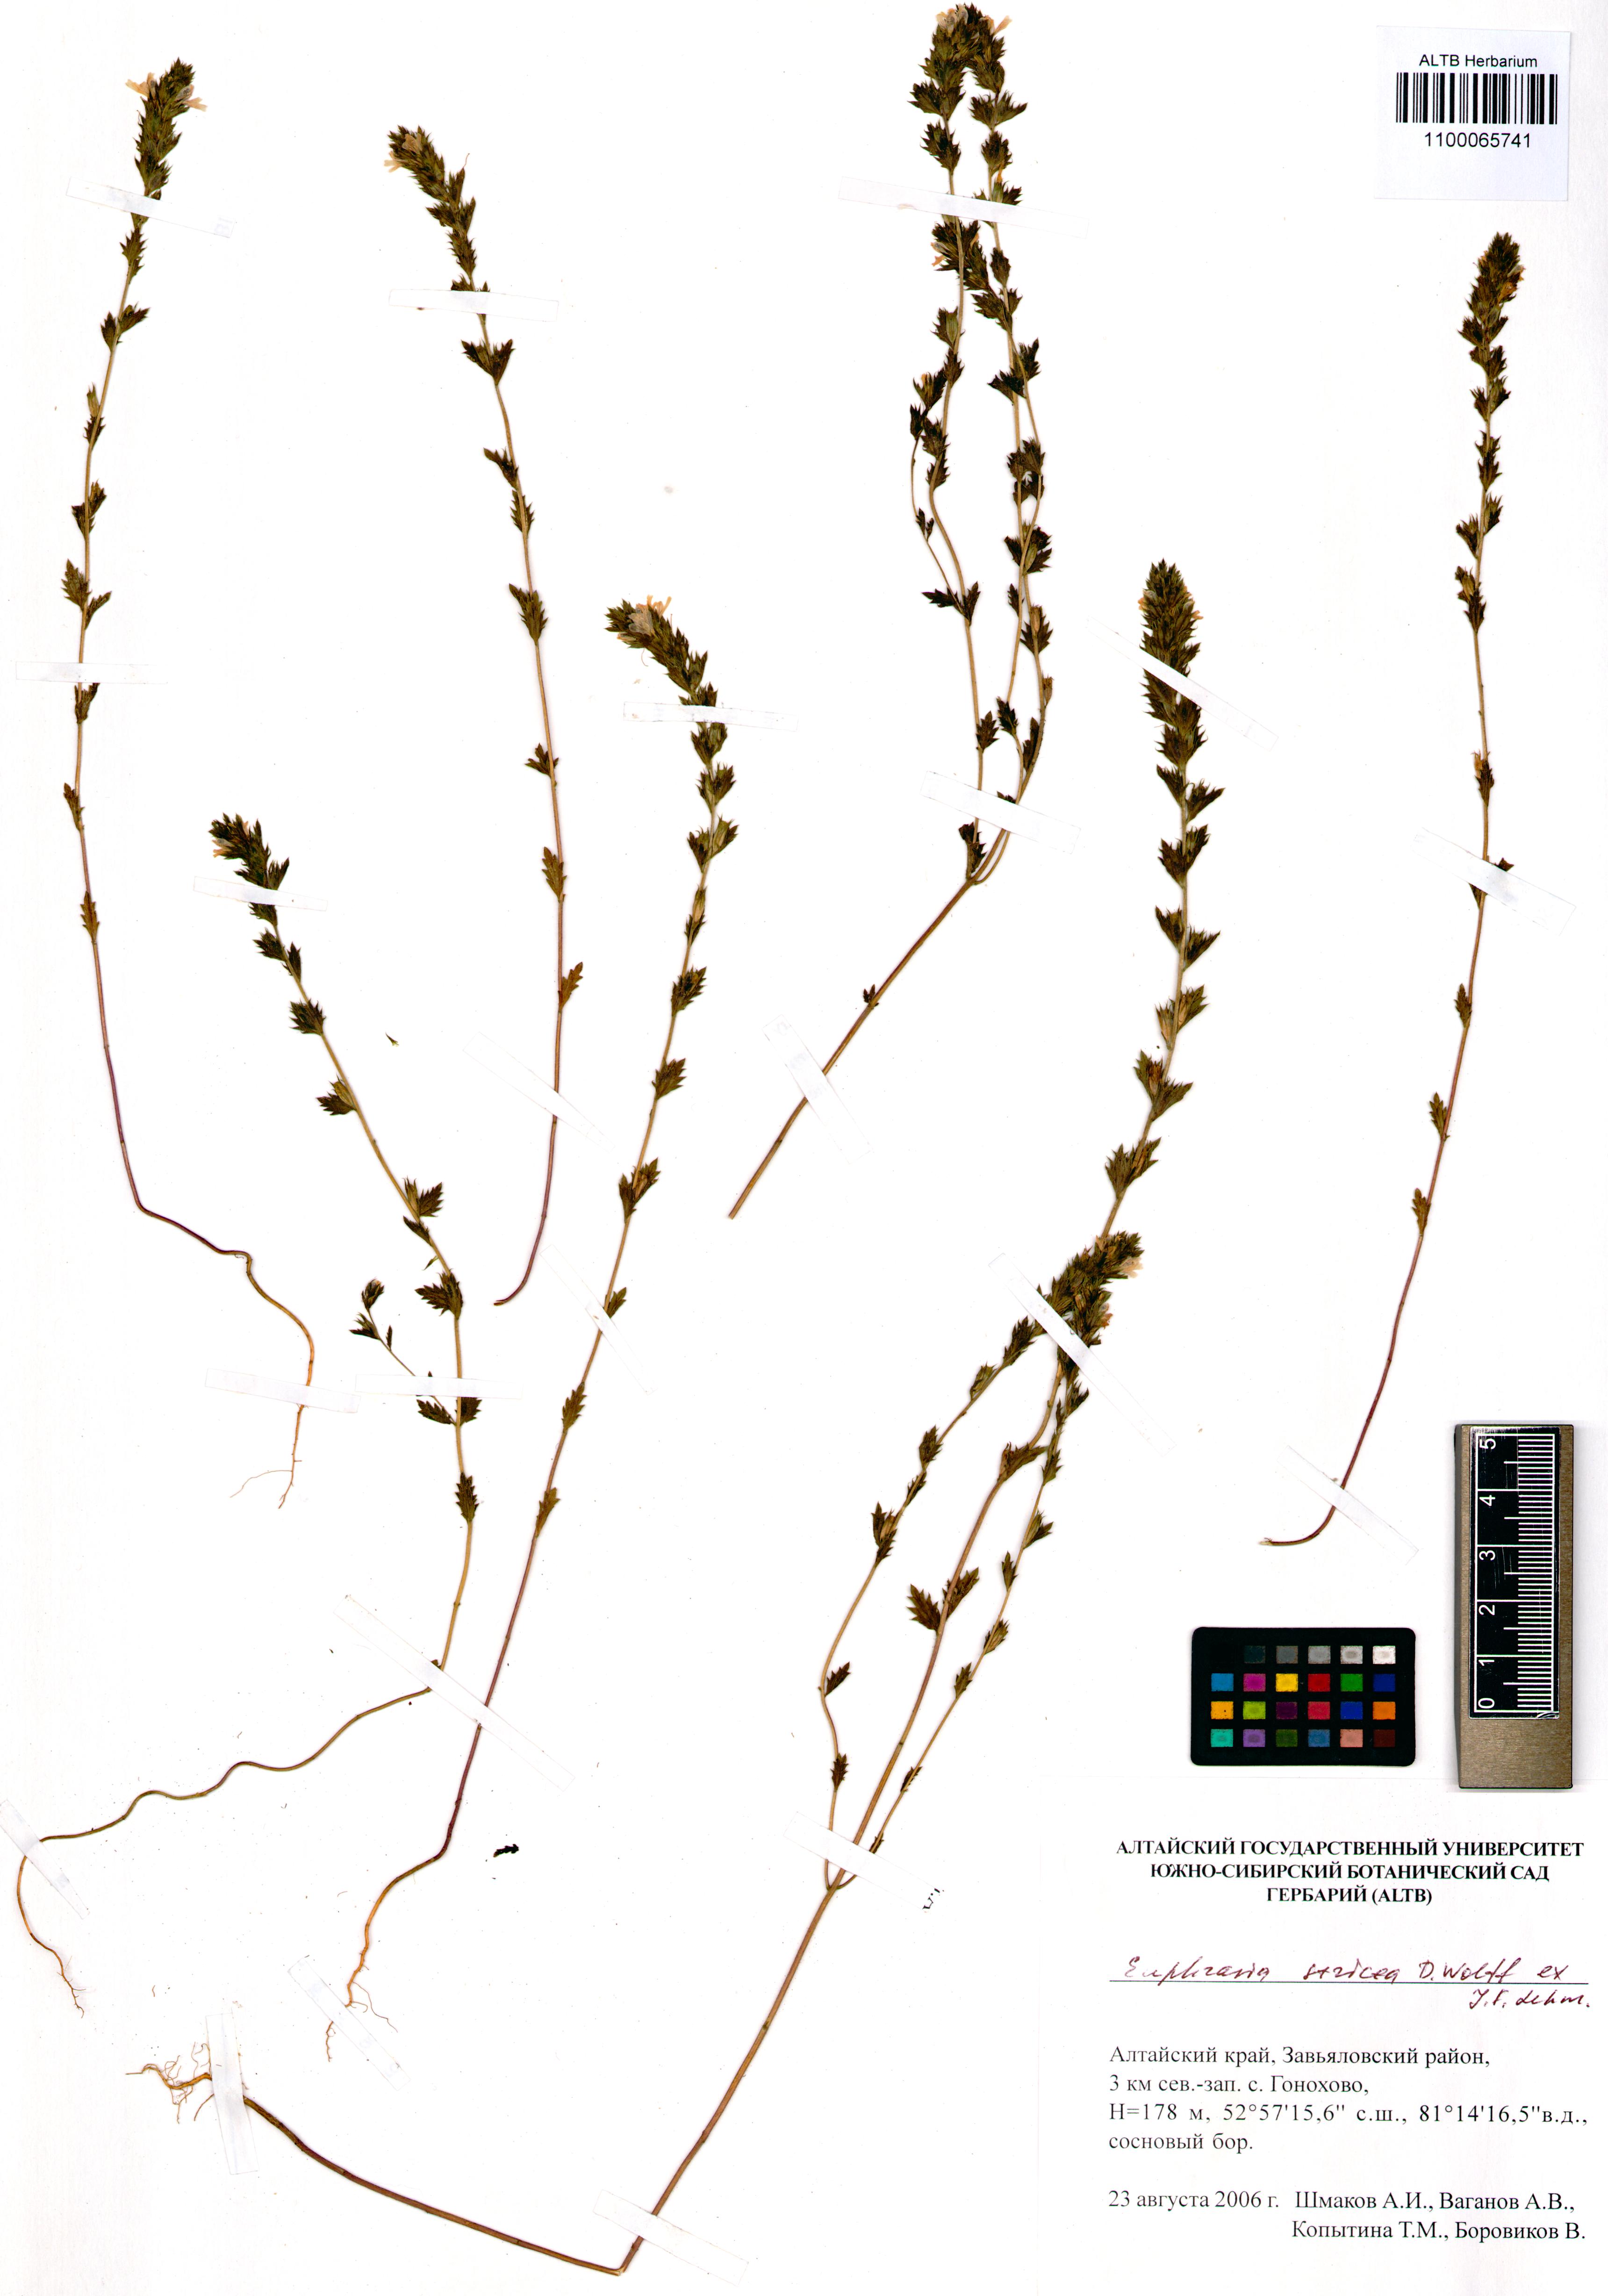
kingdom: Plantae
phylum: Tracheophyta
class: Magnoliopsida
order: Lamiales
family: Orobanchaceae
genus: Euphrasia
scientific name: Euphrasia stricta
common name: Drug eyebright
